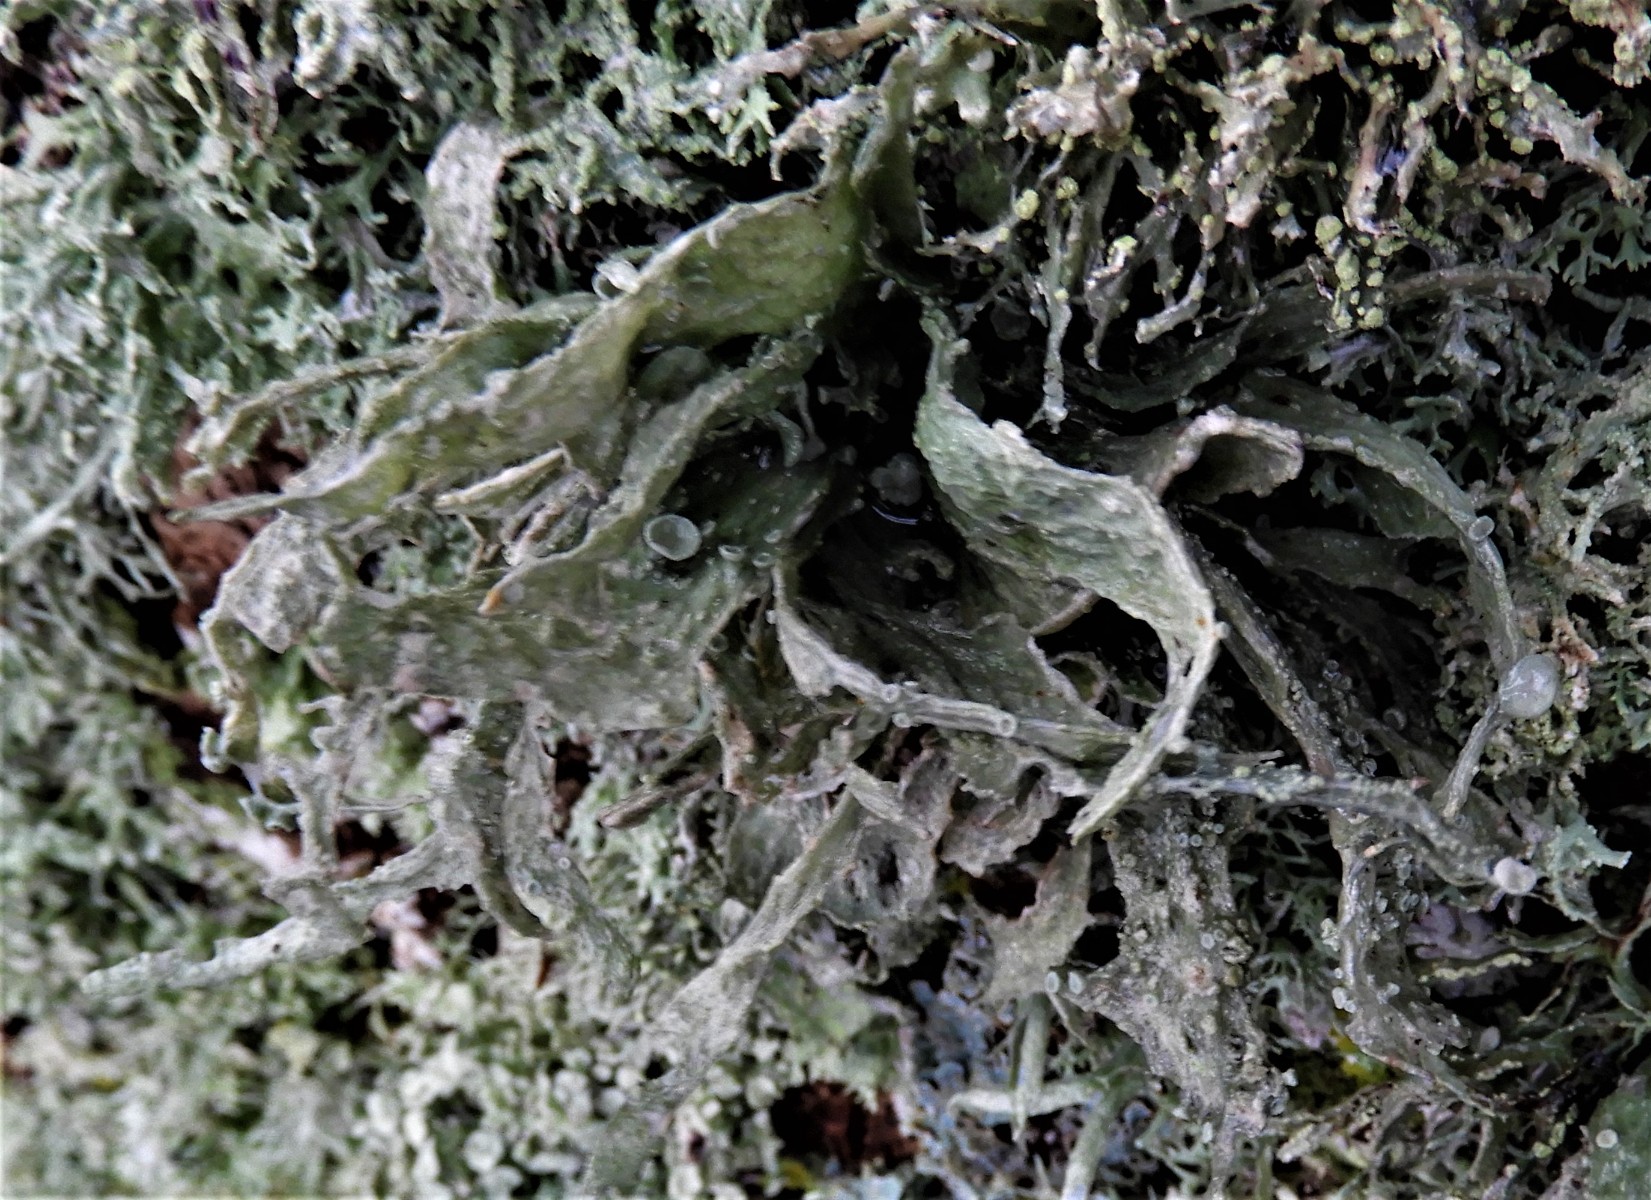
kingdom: Fungi
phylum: Ascomycota
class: Lecanoromycetes
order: Lecanorales
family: Ramalinaceae
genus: Ramalina
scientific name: Ramalina fraxinea
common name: stor grenlav
